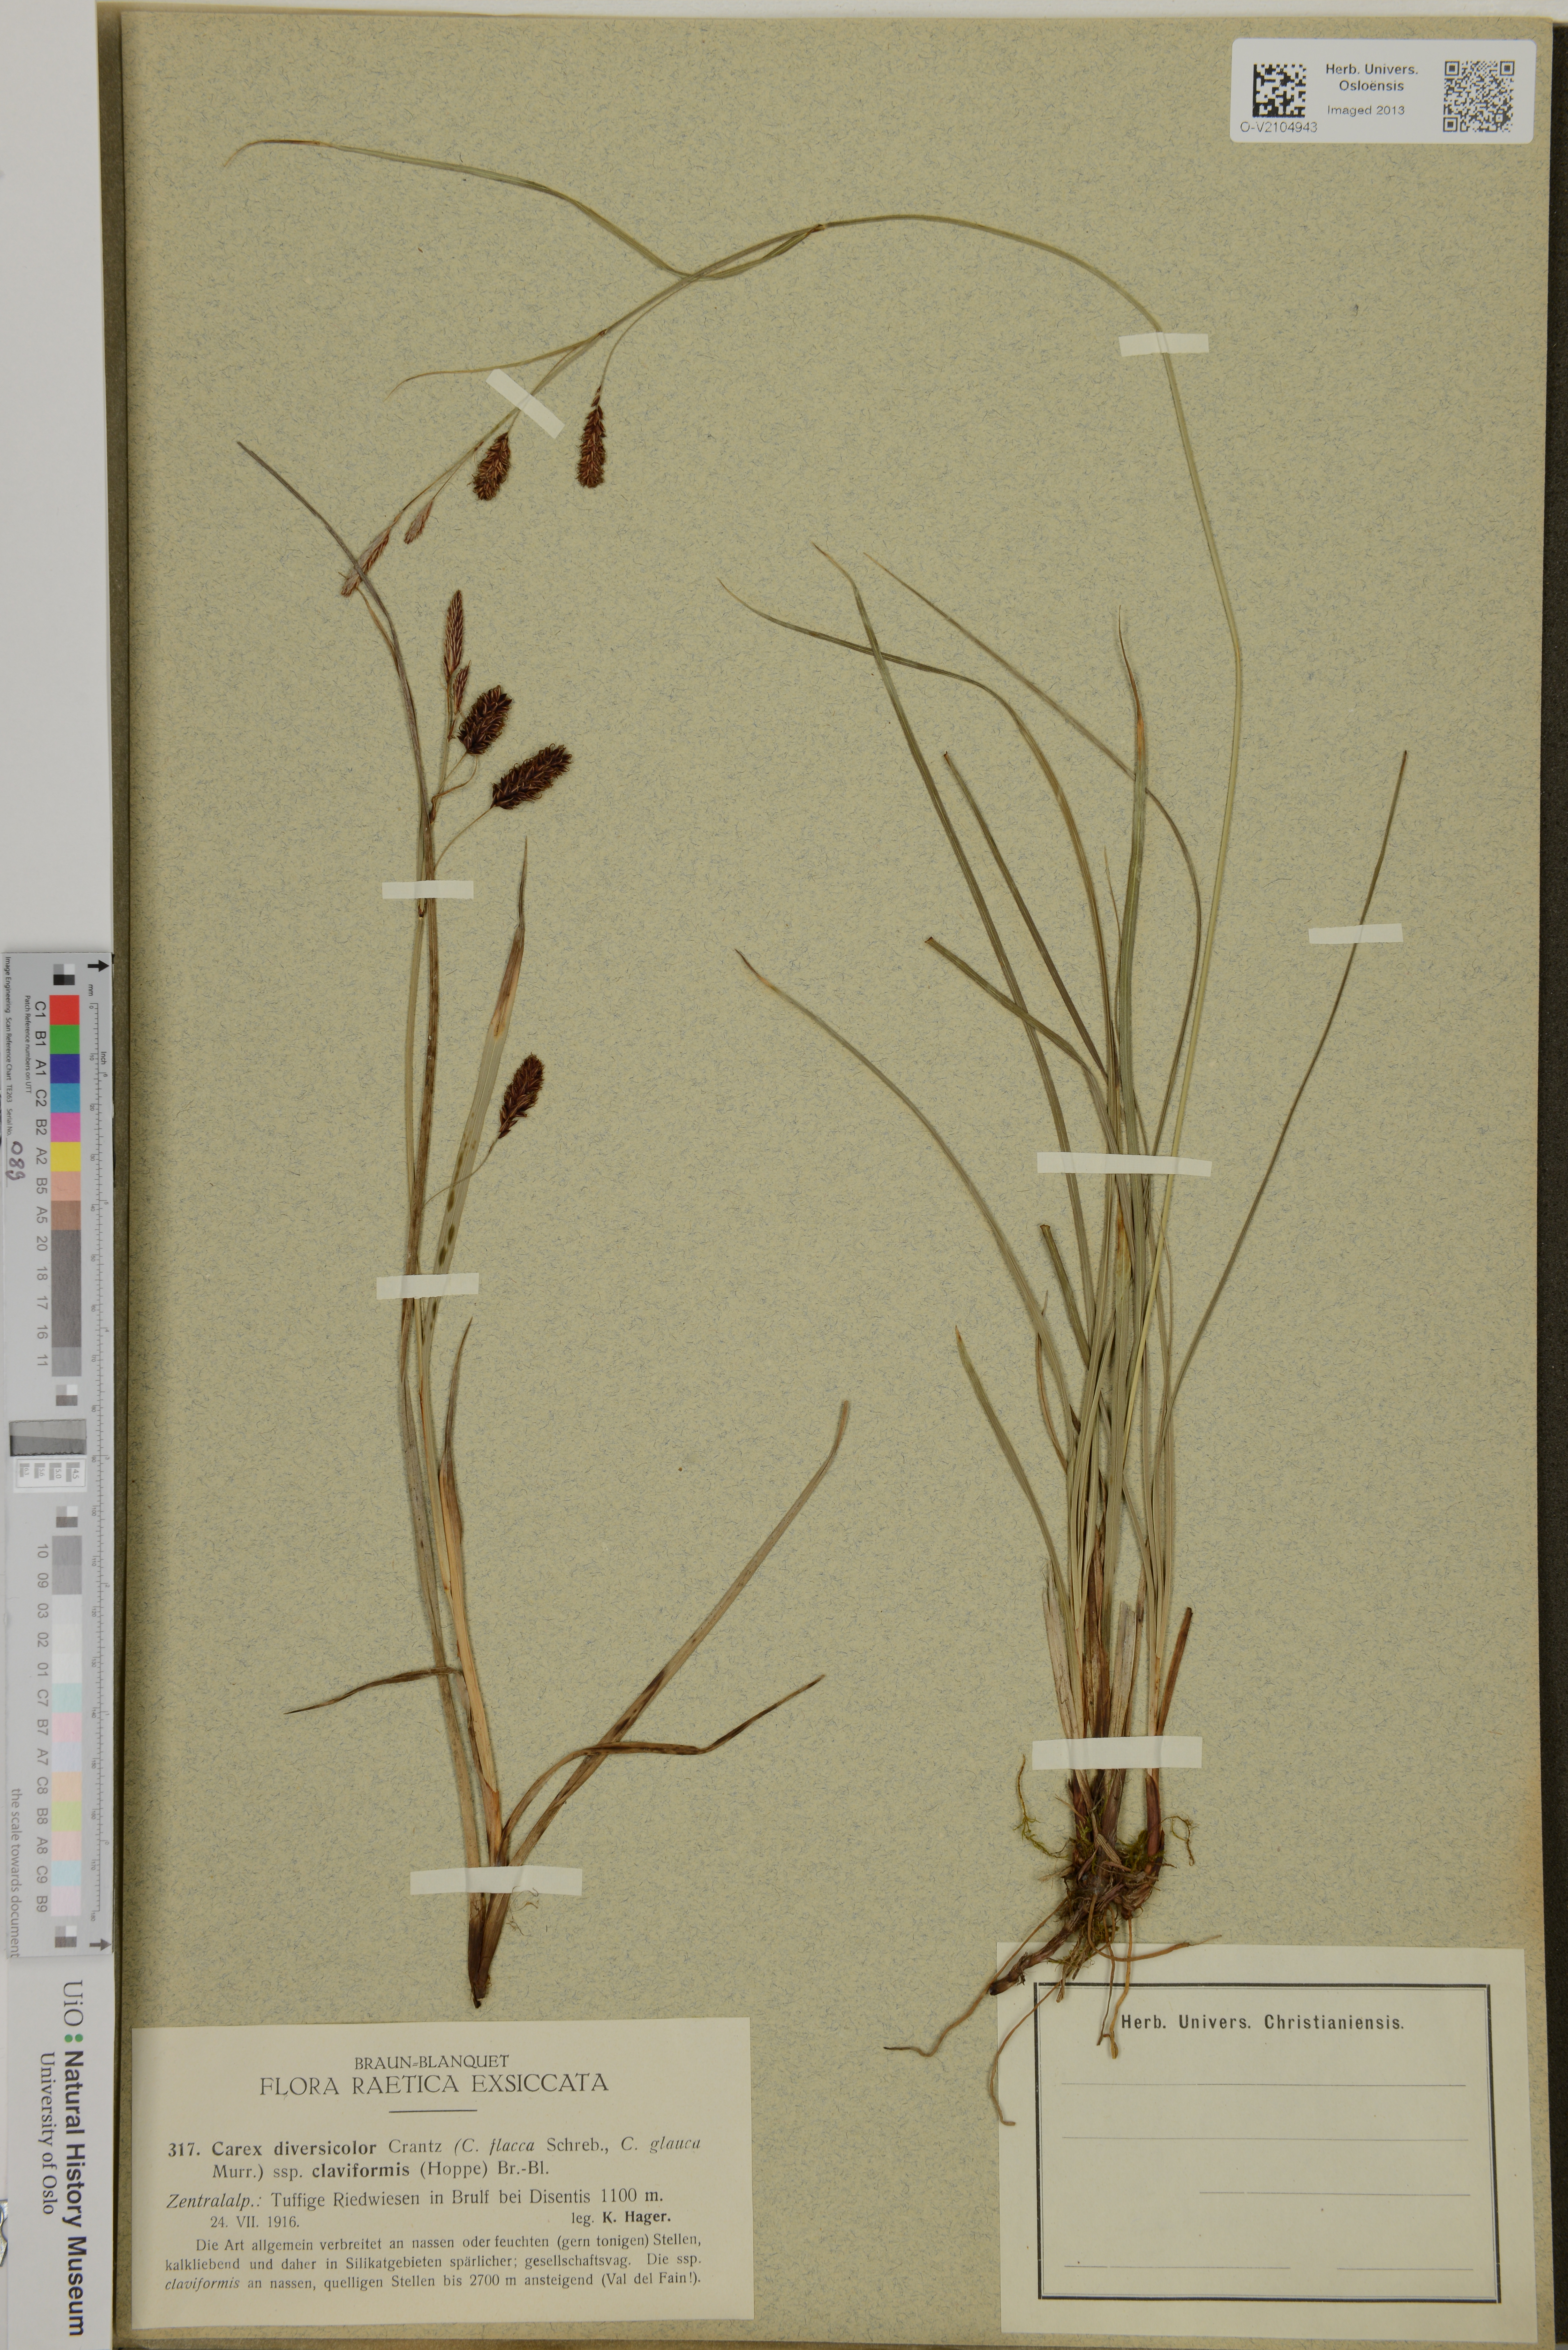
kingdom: Plantae
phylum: Tracheophyta
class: Liliopsida
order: Poales
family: Cyperaceae
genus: Carex
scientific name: Carex flacca
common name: Glaucous sedge
